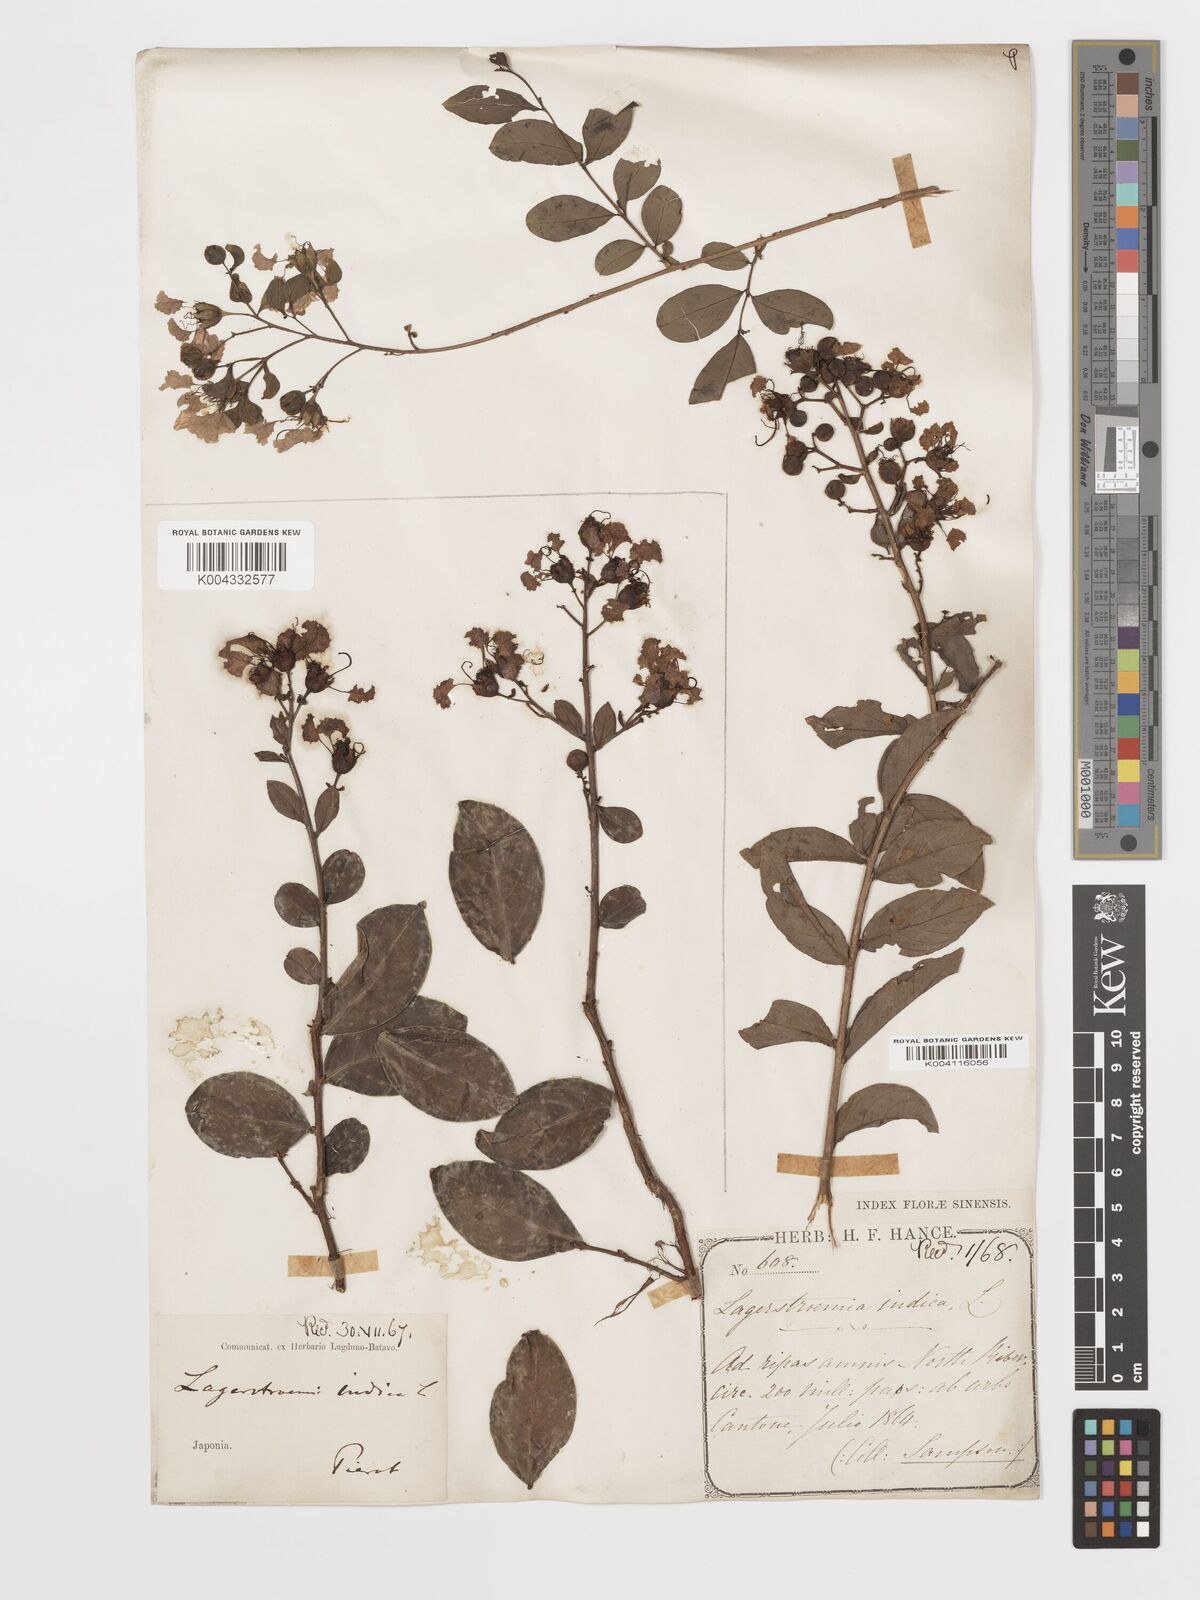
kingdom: Plantae
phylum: Tracheophyta
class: Magnoliopsida
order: Myrtales
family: Lythraceae
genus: Lagerstroemia
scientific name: Lagerstroemia indica
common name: Crape-myrtle
